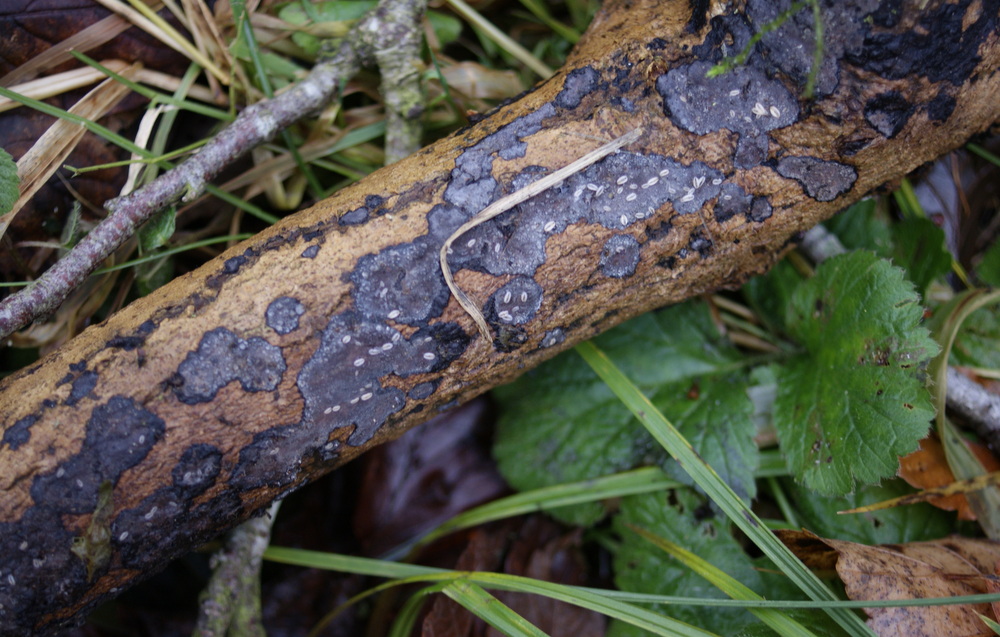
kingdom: Fungi
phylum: Basidiomycota
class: Agaricomycetes
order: Russulales
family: Peniophoraceae
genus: Peniophora
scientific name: Peniophora limitata
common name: mørkrandet voksskind
